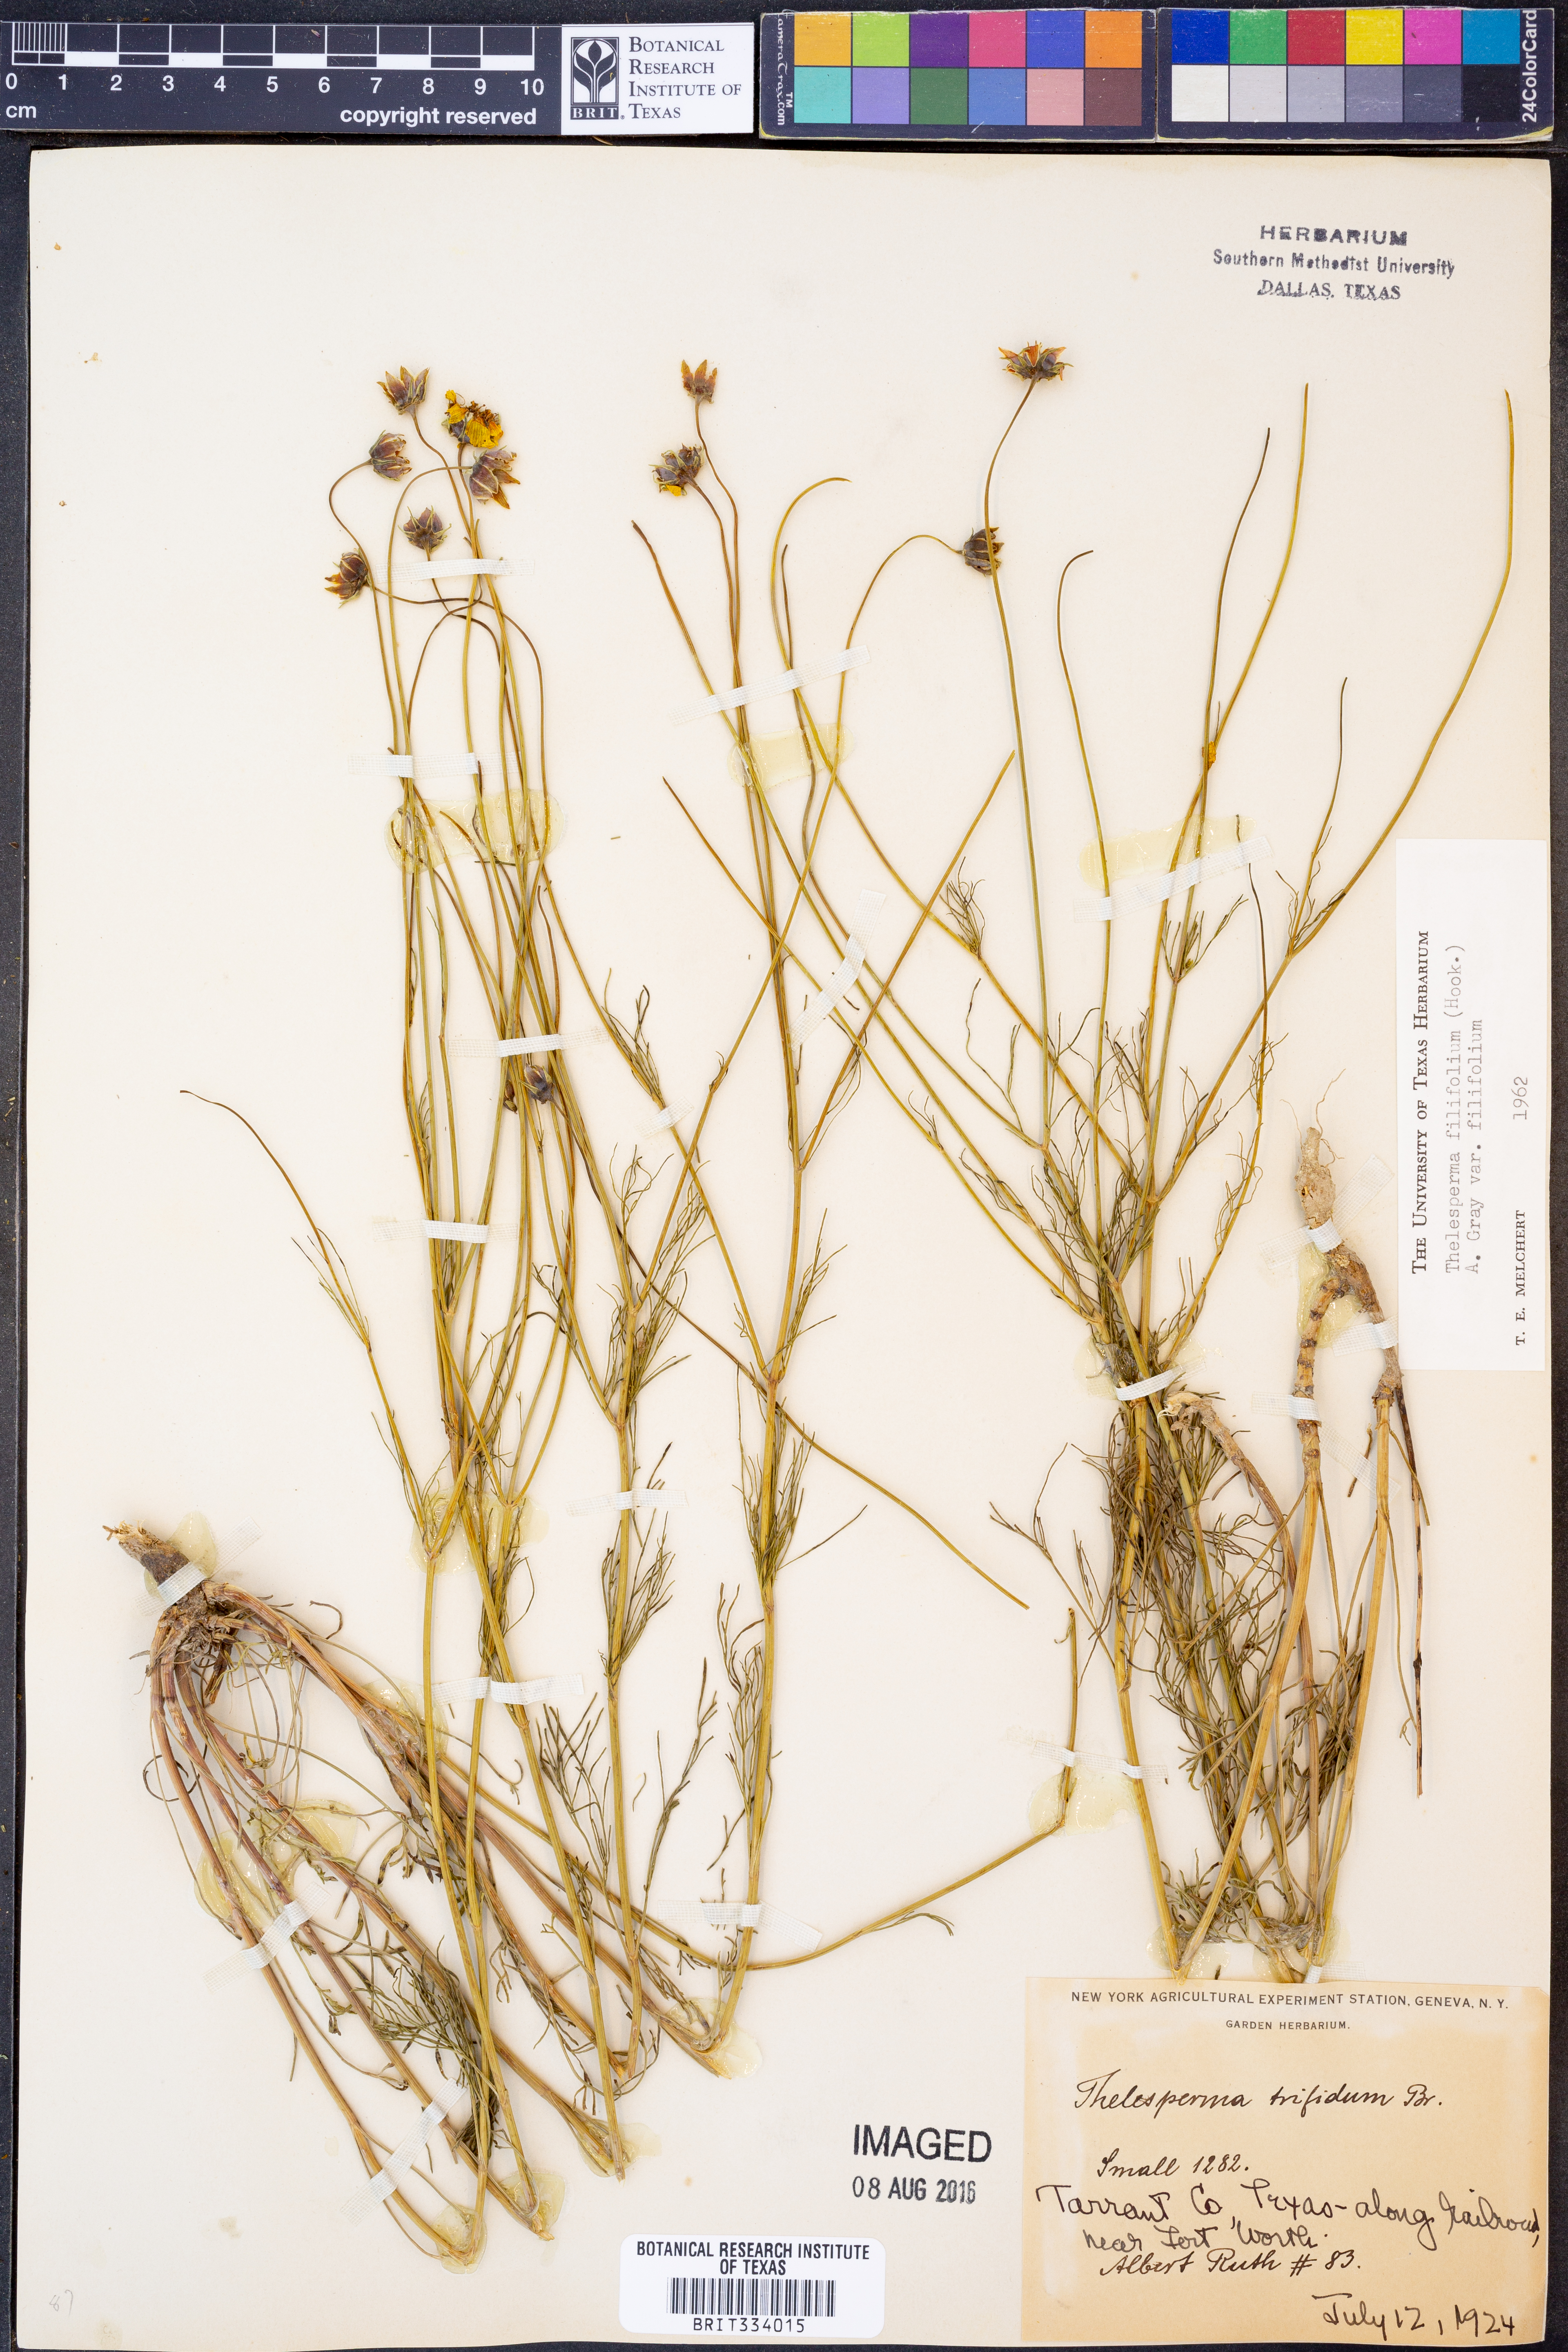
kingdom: Plantae
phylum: Tracheophyta
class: Magnoliopsida
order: Asterales
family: Asteraceae
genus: Thelesperma
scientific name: Thelesperma filifolium
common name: Stiff greenthread
